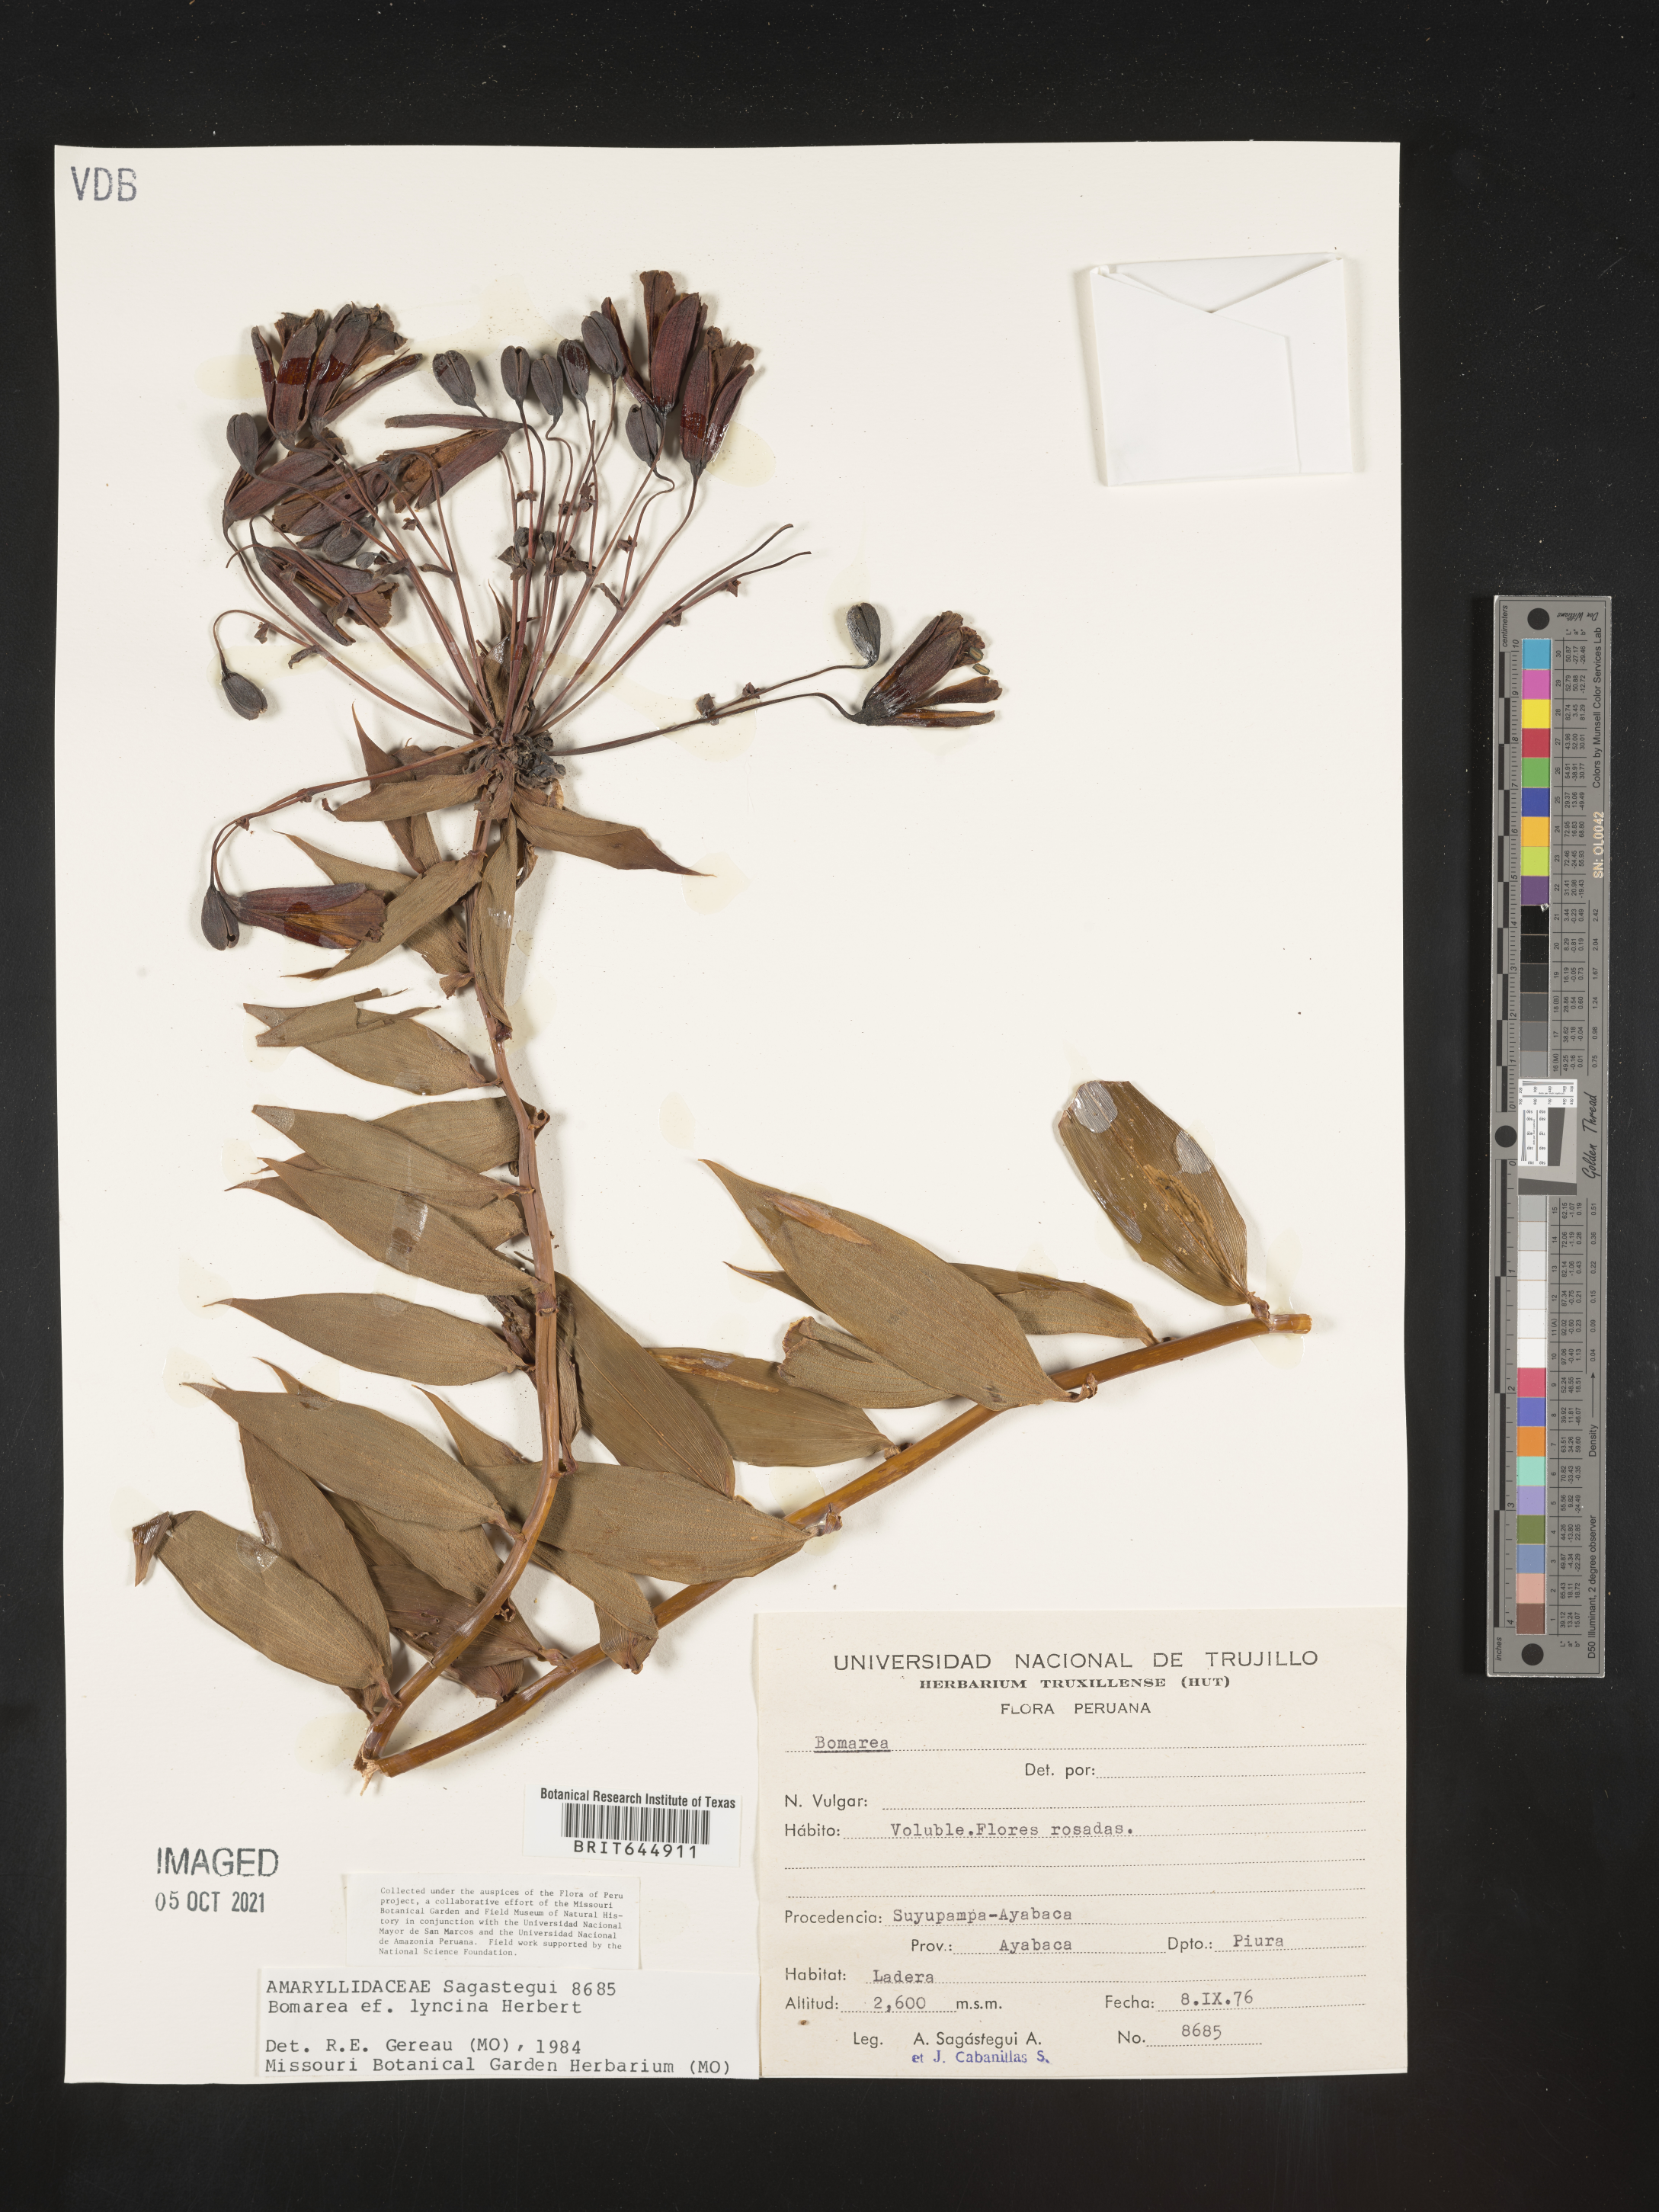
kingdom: Plantae
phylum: Tracheophyta
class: Liliopsida
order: Liliales
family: Alstroemeriaceae
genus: Bomarea
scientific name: Bomarea pardina
